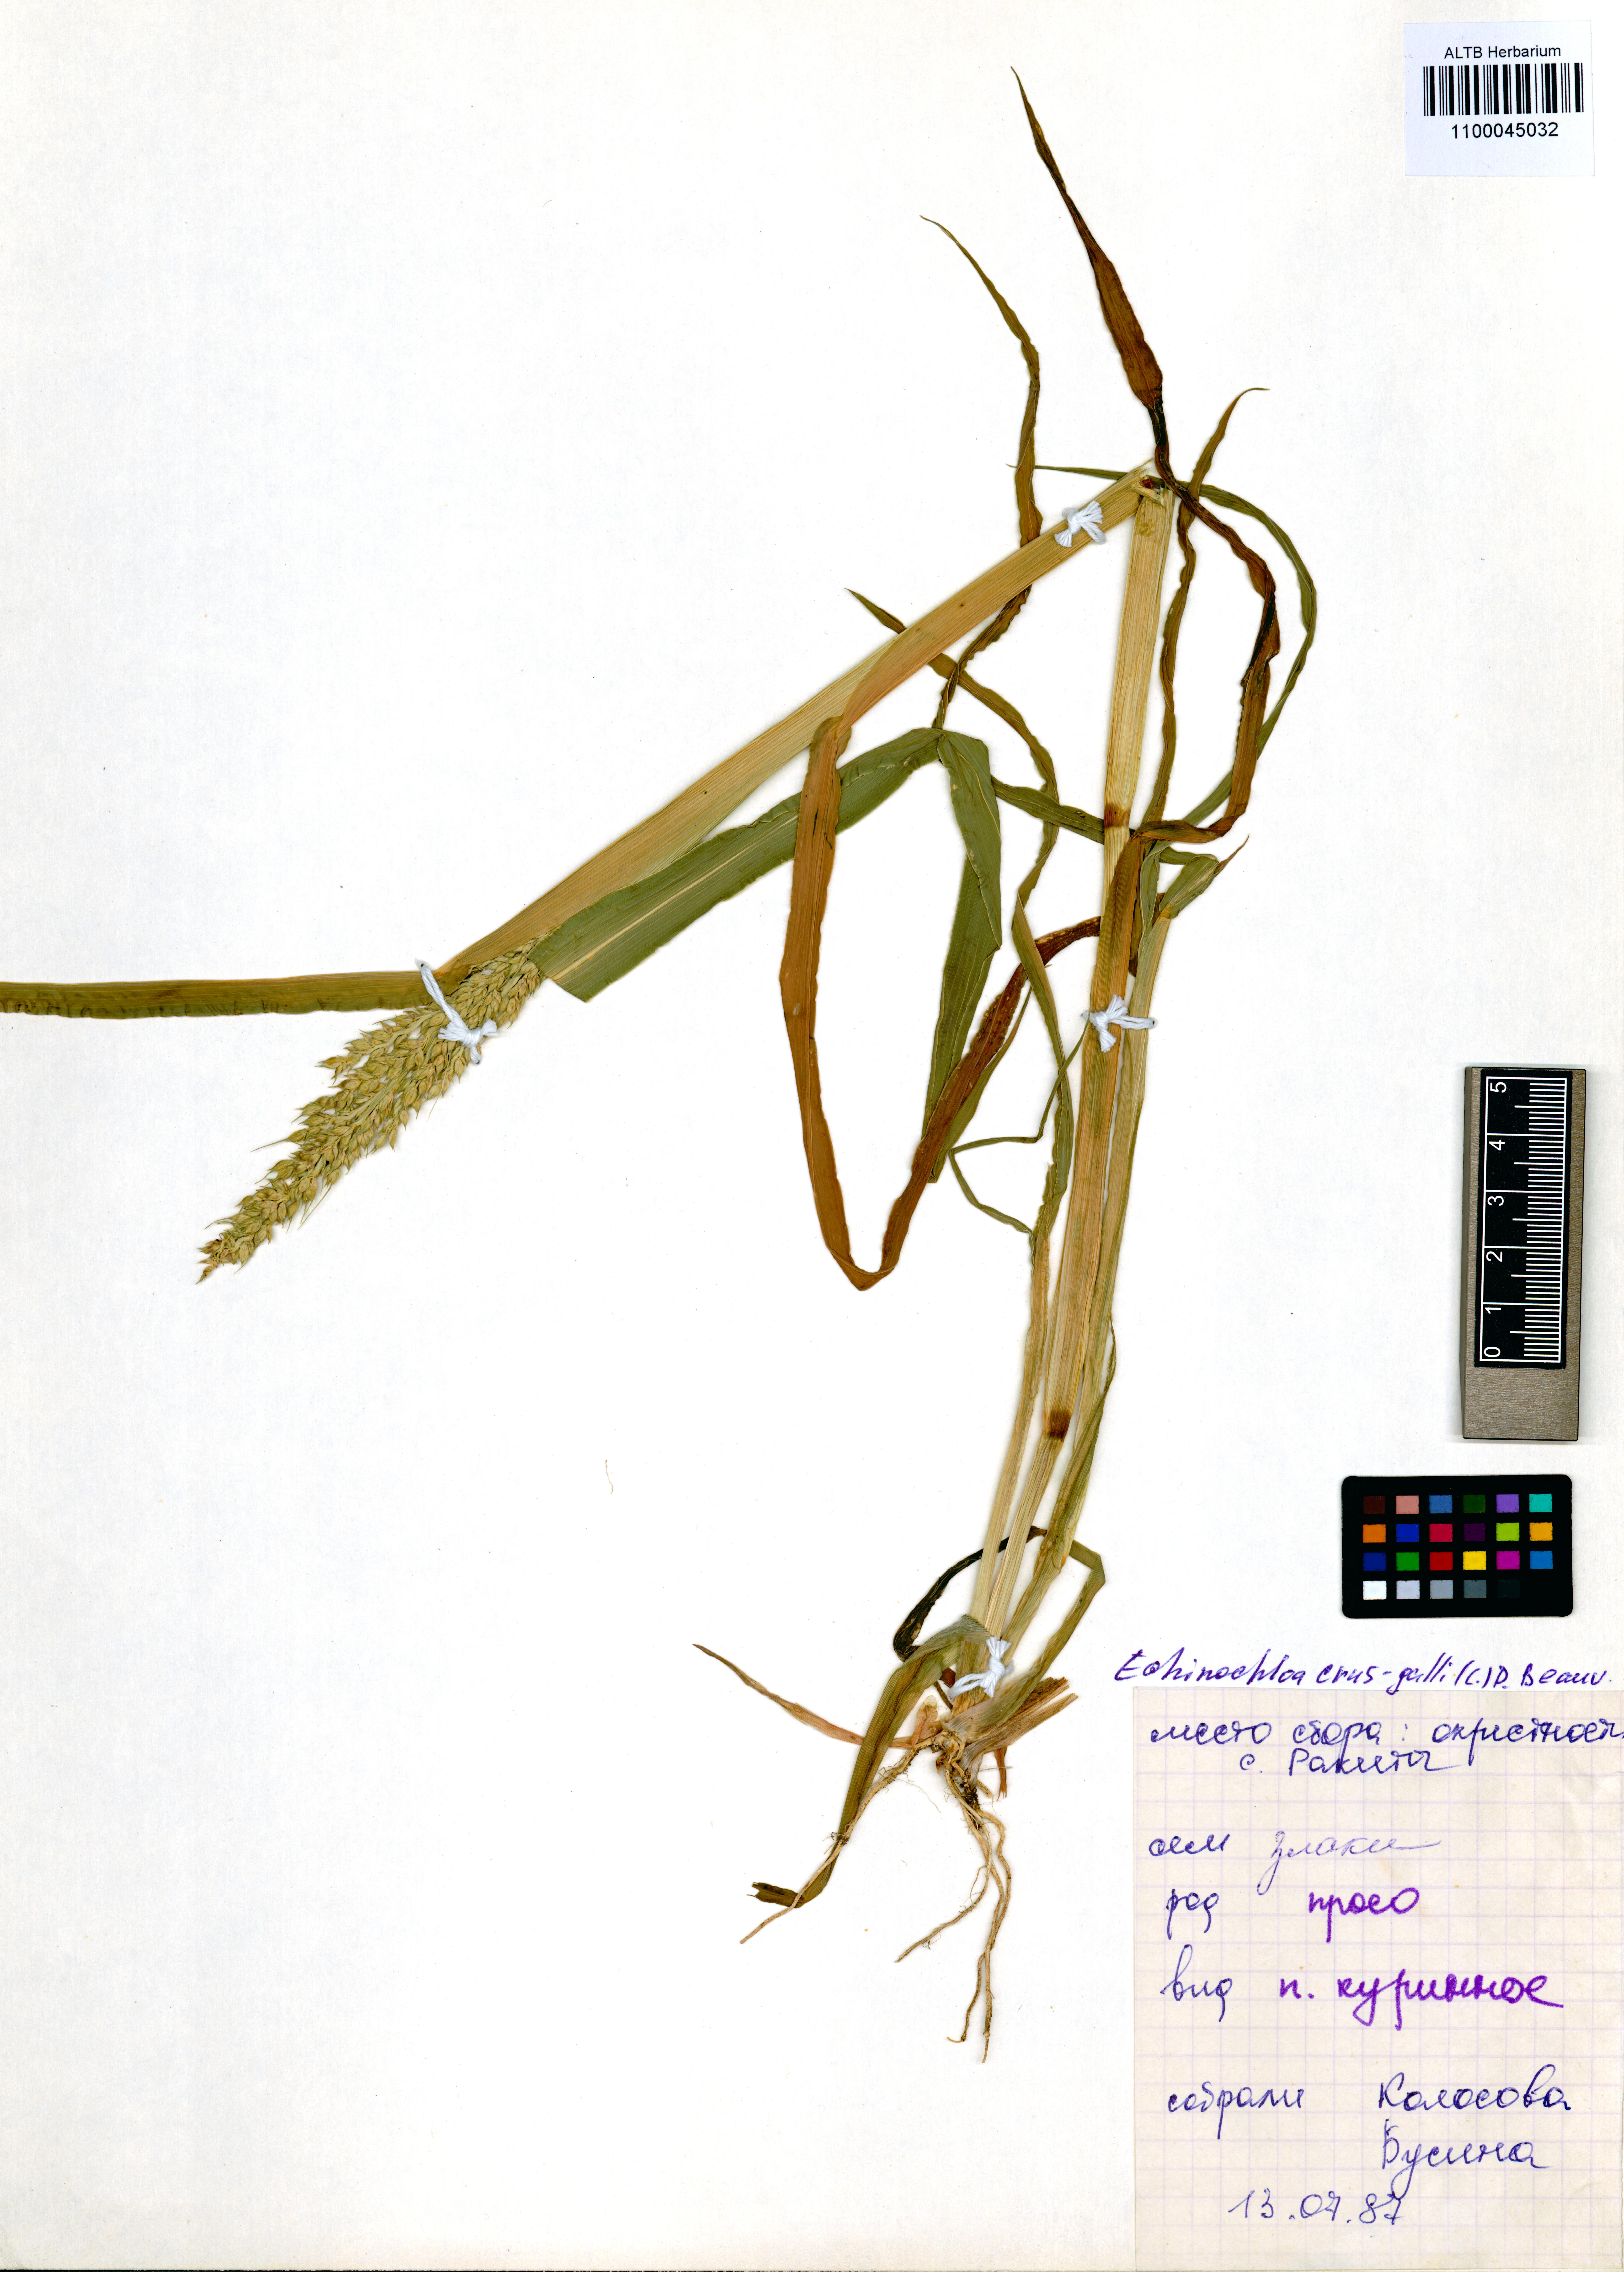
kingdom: Plantae
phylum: Tracheophyta
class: Liliopsida
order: Poales
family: Poaceae
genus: Echinochloa
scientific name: Echinochloa crus-galli
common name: Cockspur
